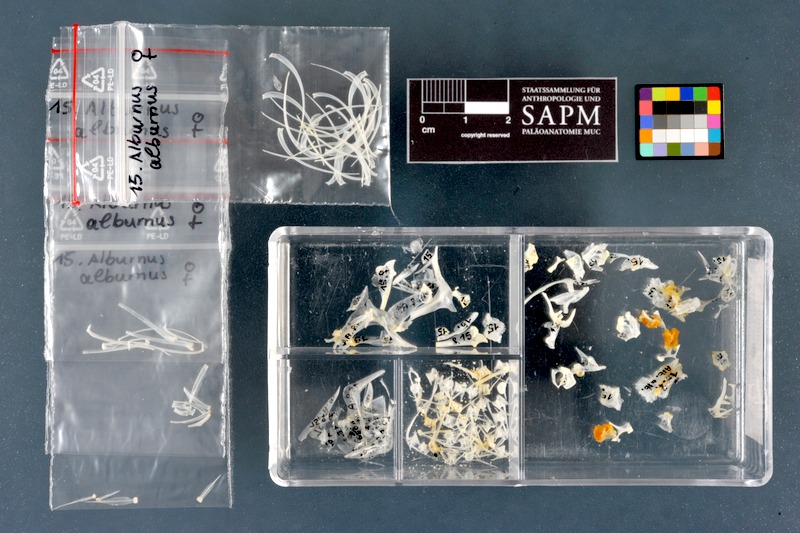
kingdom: Animalia
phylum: Chordata
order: Cypriniformes
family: Cyprinidae
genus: Alburnus
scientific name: Alburnus alburnus
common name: Bleak
